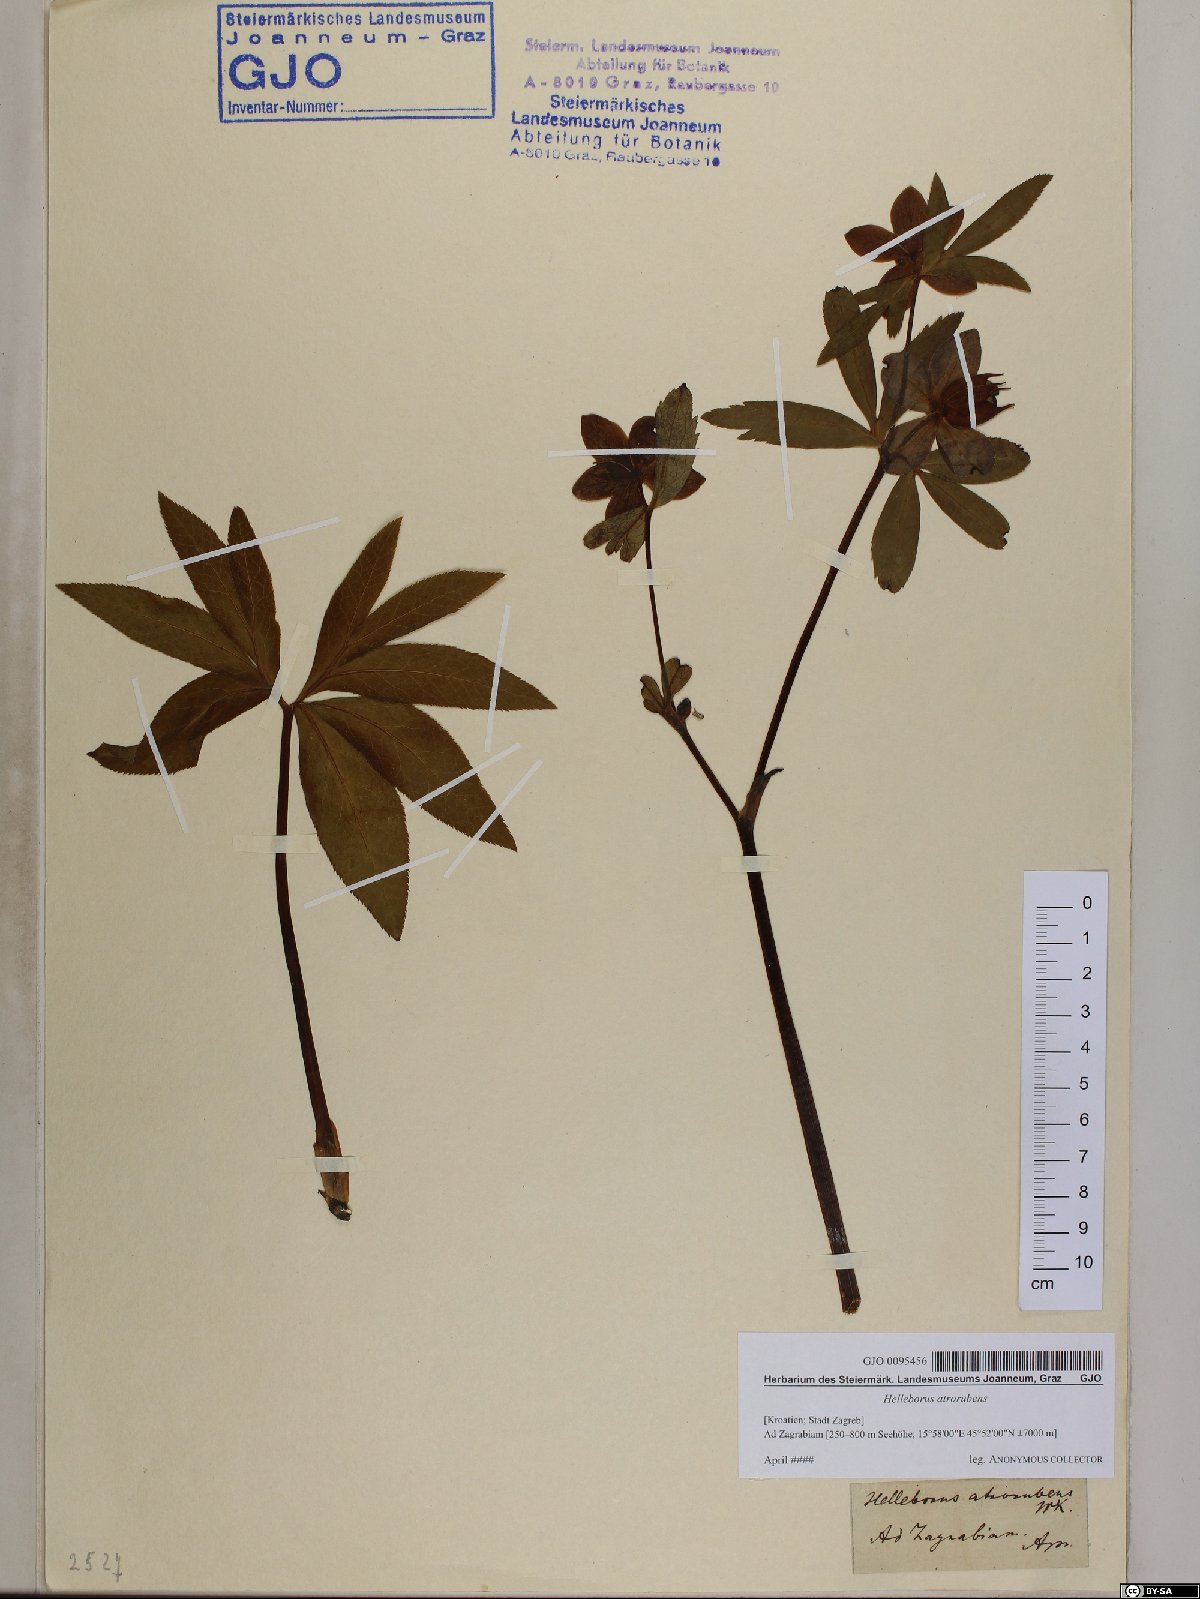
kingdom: Plantae
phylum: Tracheophyta
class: Magnoliopsida
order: Ranunculales
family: Ranunculaceae
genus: Helleborus
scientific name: Helleborus dumetorum
